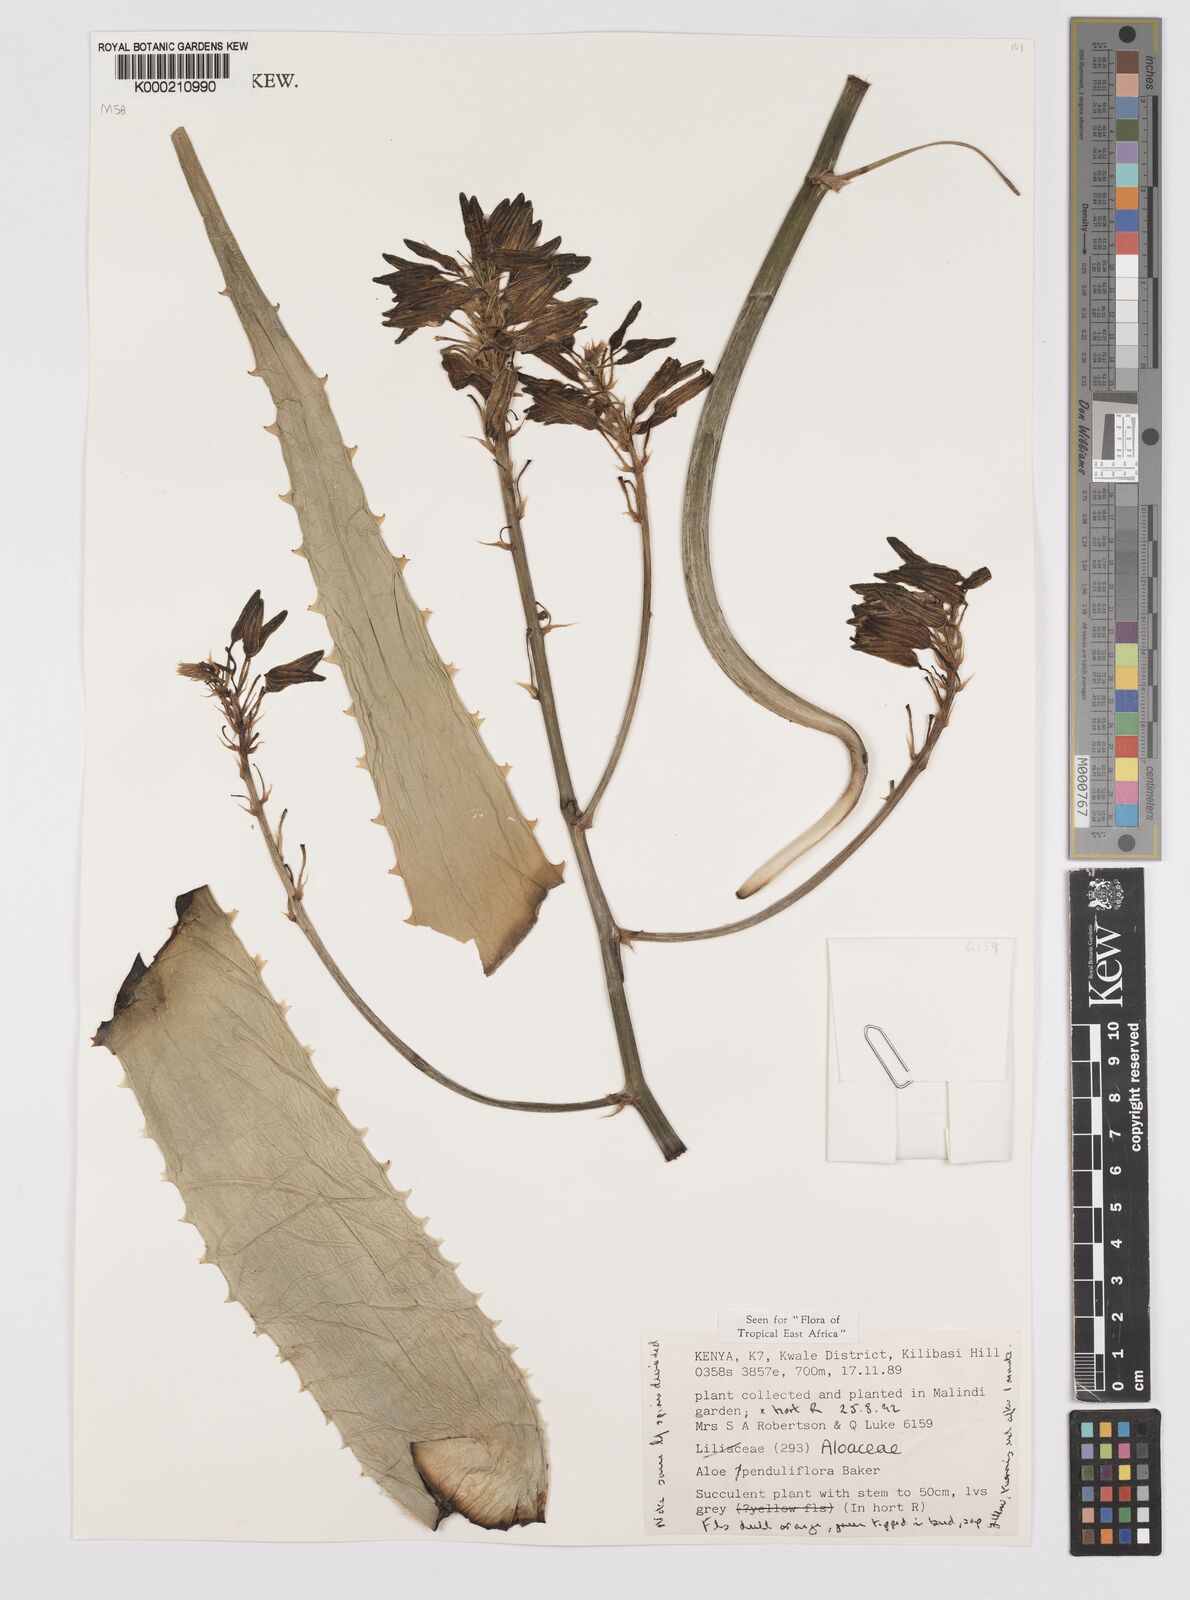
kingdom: Plantae
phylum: Tracheophyta
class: Liliopsida
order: Asparagales
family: Asphodelaceae
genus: Aloe
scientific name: Aloe penduliflora
